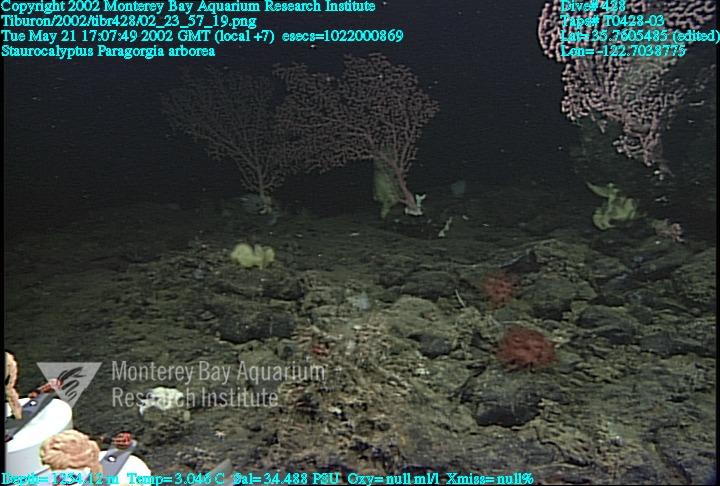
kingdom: Animalia
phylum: Porifera
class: Hexactinellida
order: Lyssacinosida
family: Rossellidae
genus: Staurocalyptus
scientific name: Staurocalyptus
